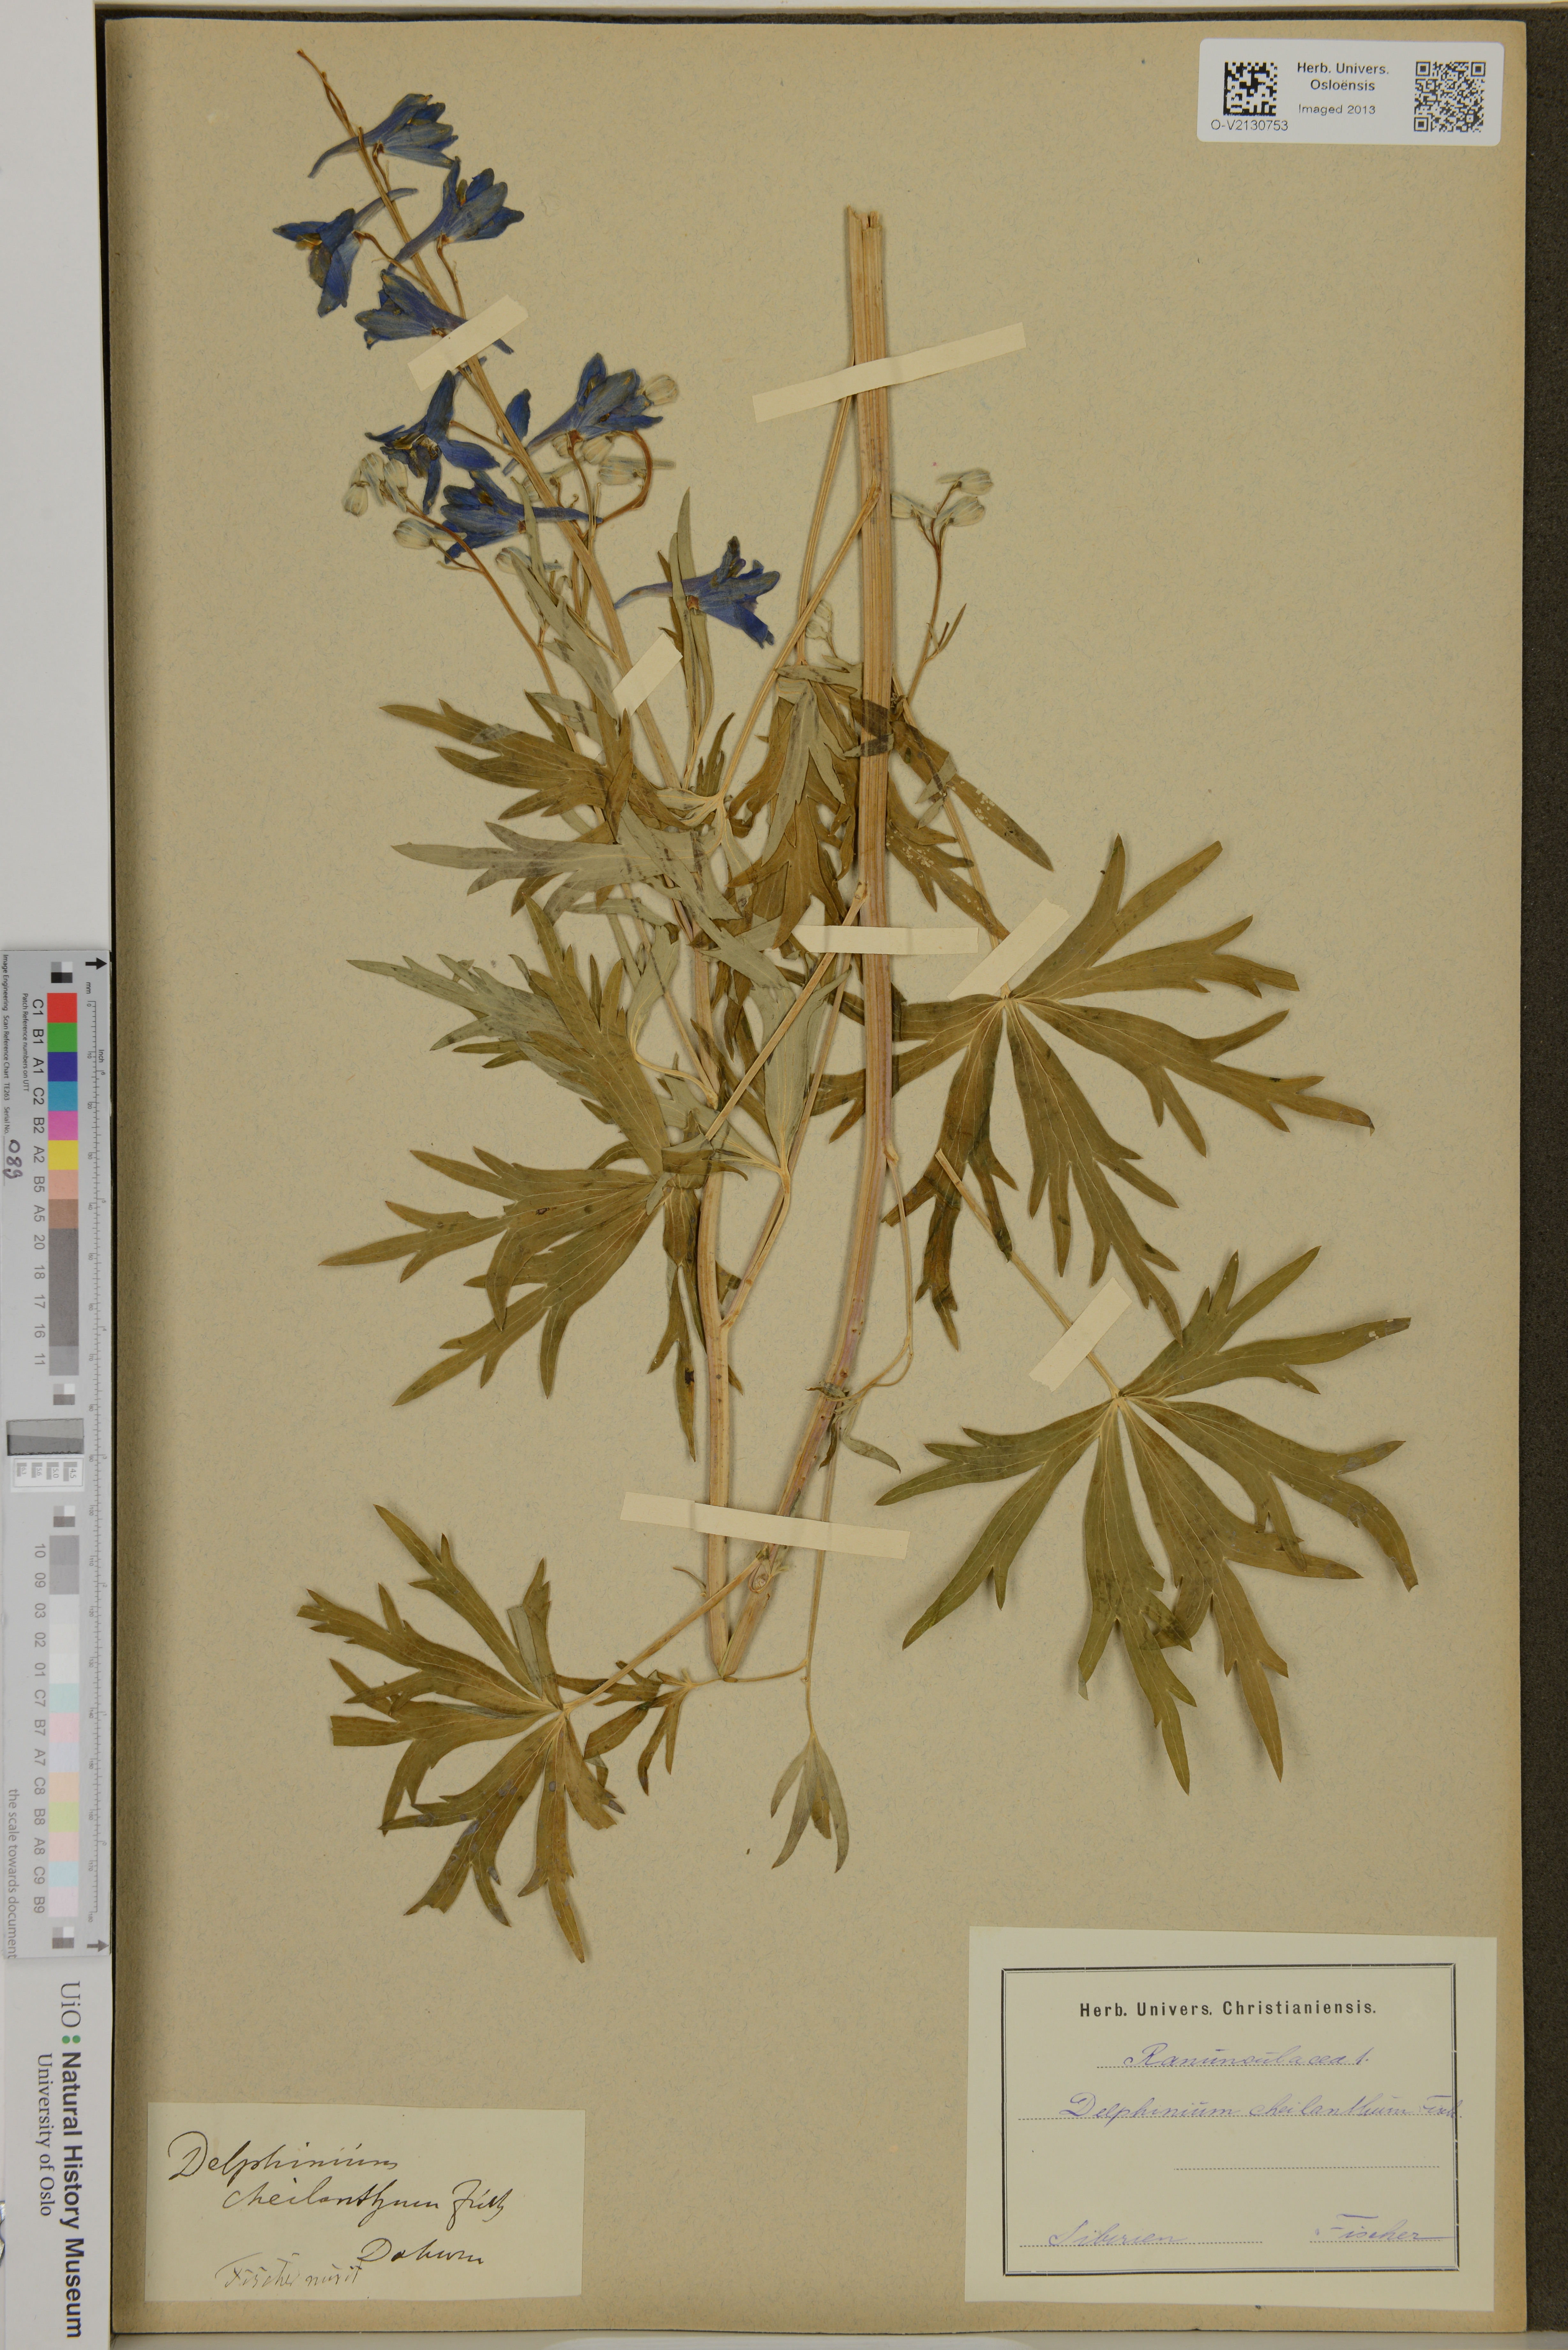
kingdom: Plantae
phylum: Tracheophyta
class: Magnoliopsida
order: Ranunculales
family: Ranunculaceae
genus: Delphinium
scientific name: Delphinium cheilanthum
